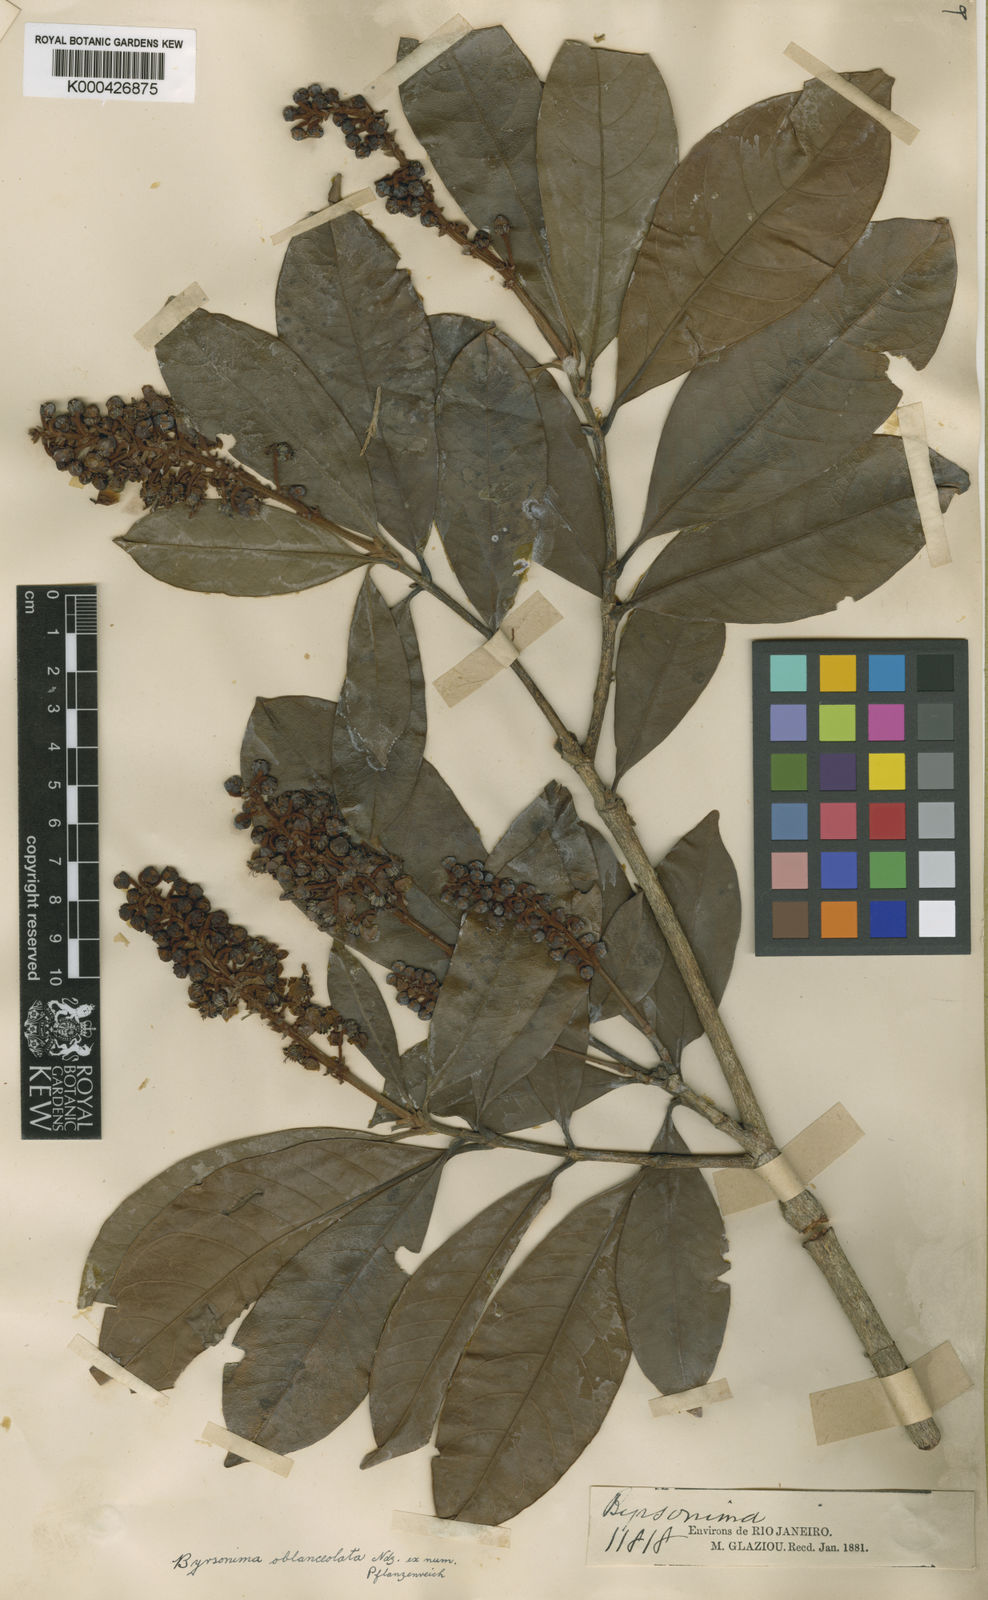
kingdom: Plantae
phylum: Tracheophyta
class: Magnoliopsida
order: Malpighiales
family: Malpighiaceae
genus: Byrsonima
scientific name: Byrsonima oblanceolata
